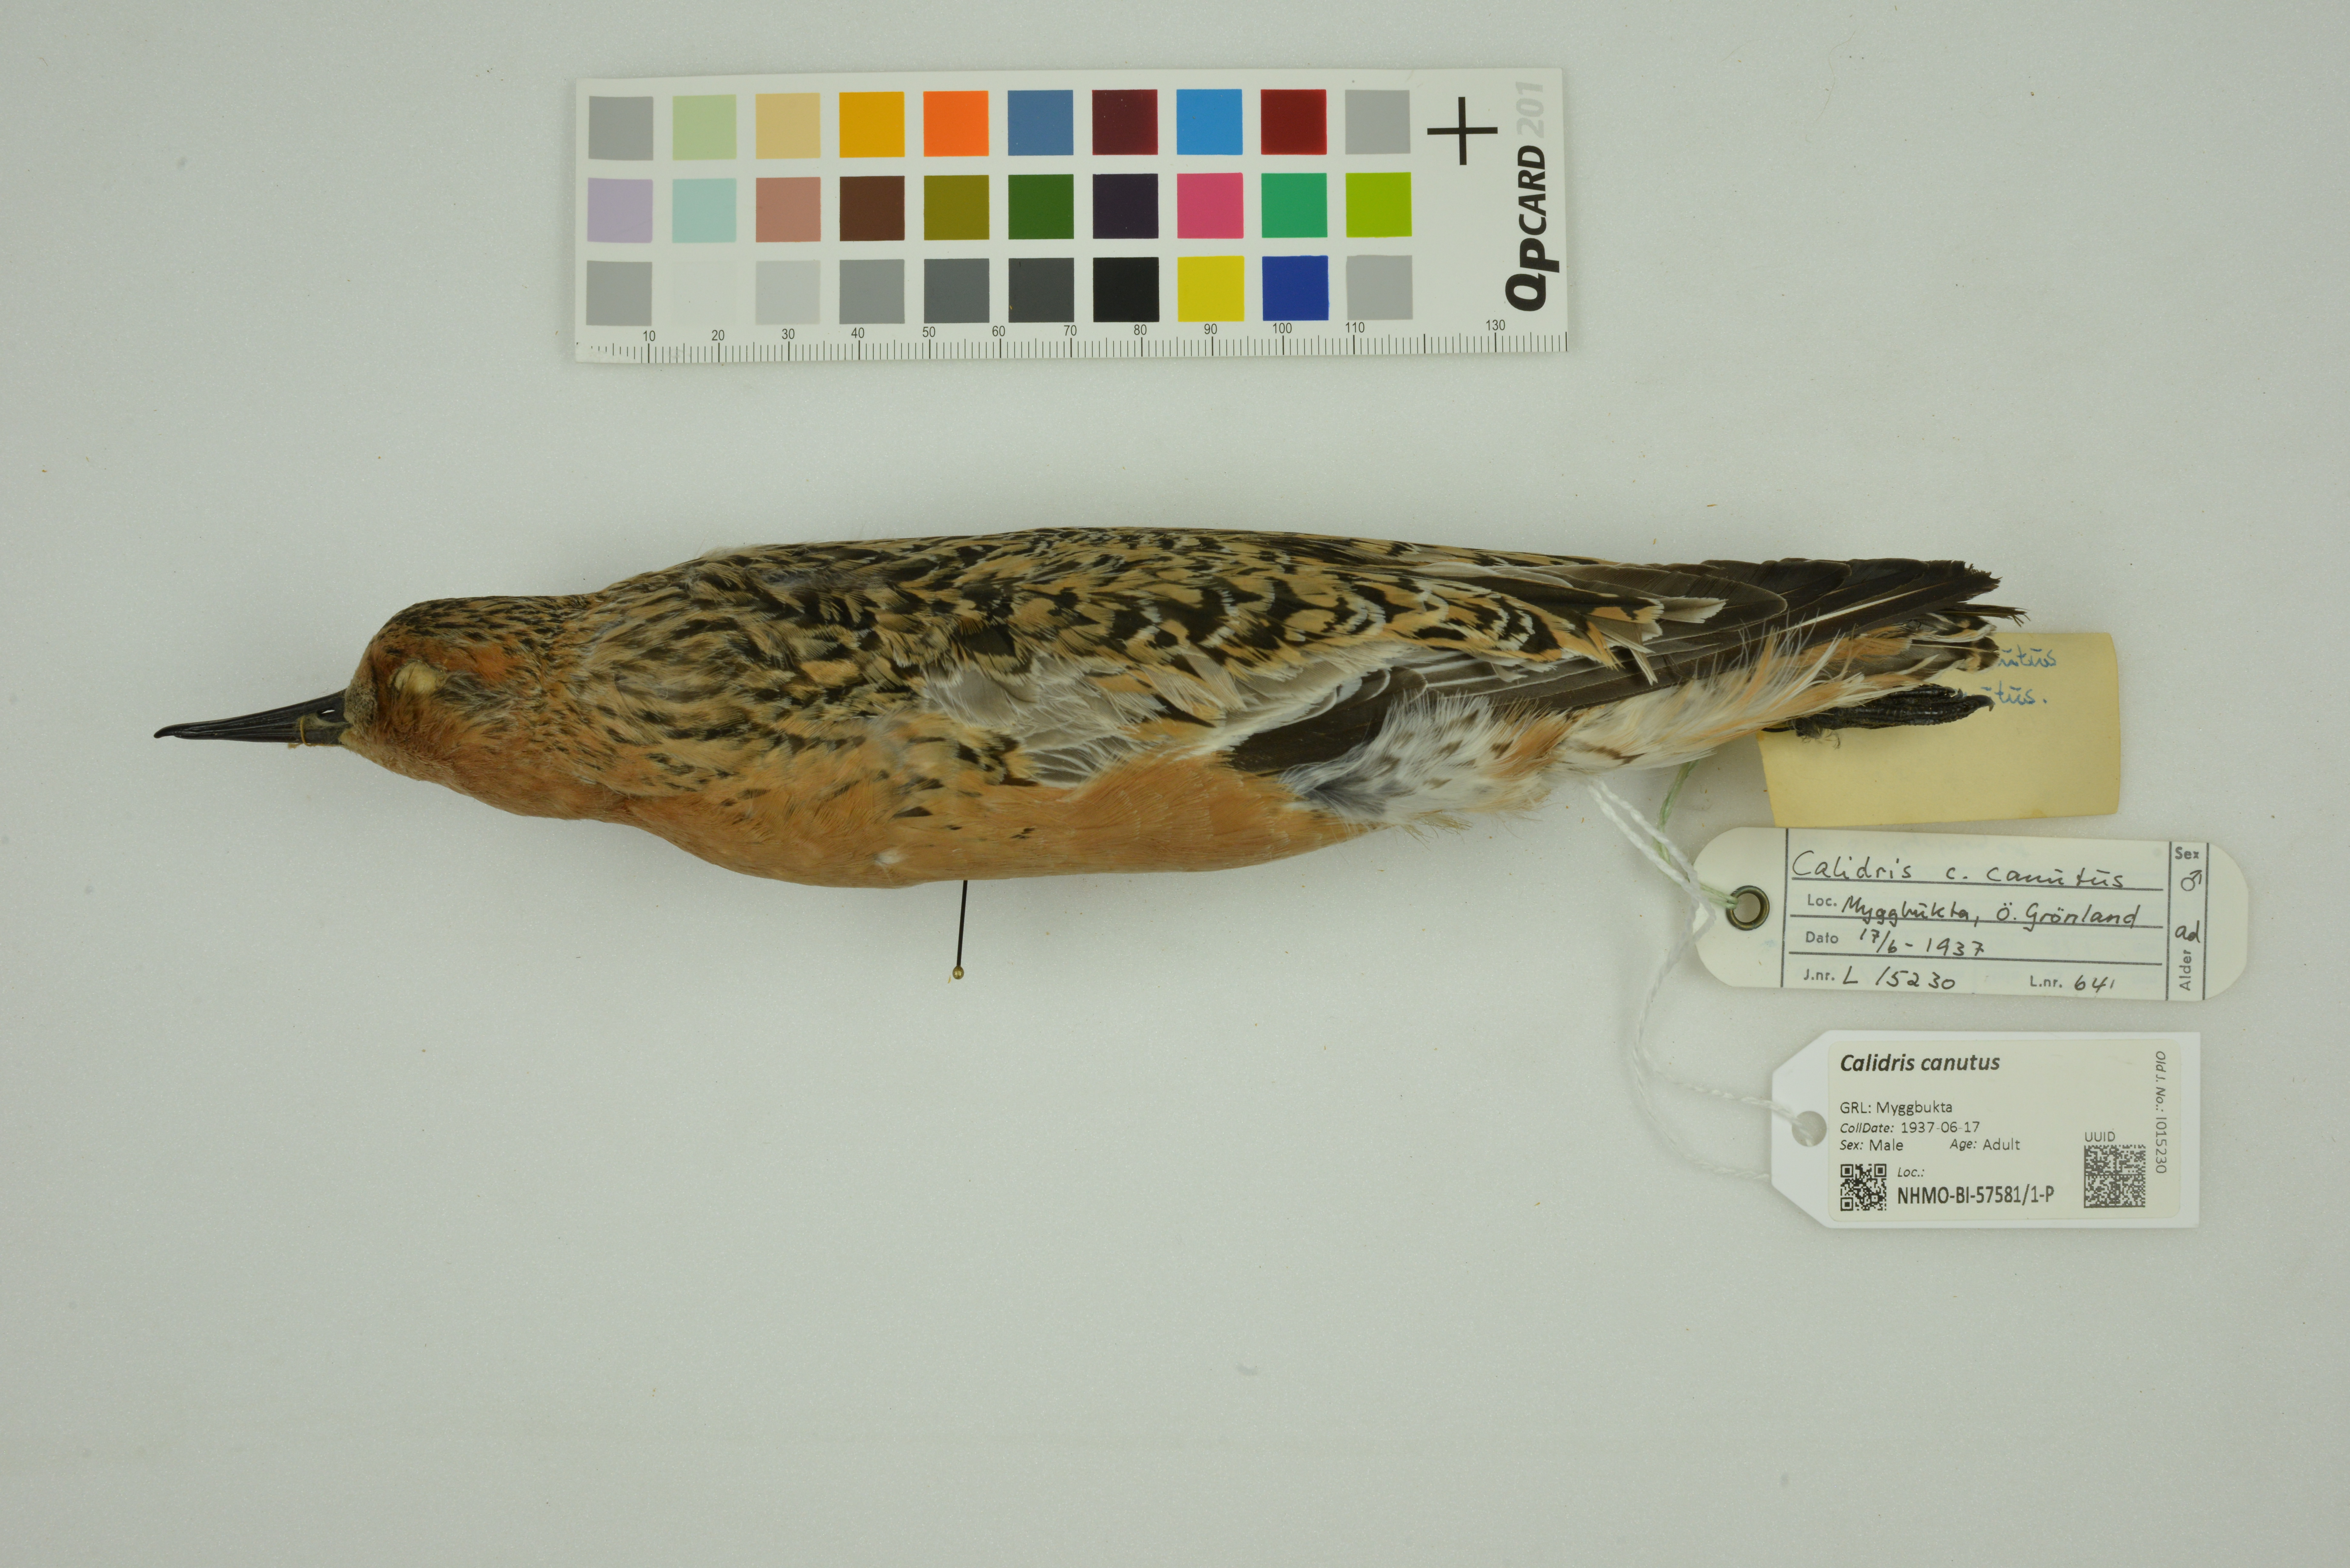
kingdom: Animalia
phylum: Chordata
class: Aves
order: Charadriiformes
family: Scolopacidae
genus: Calidris
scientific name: Calidris canutus
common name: Red knot
